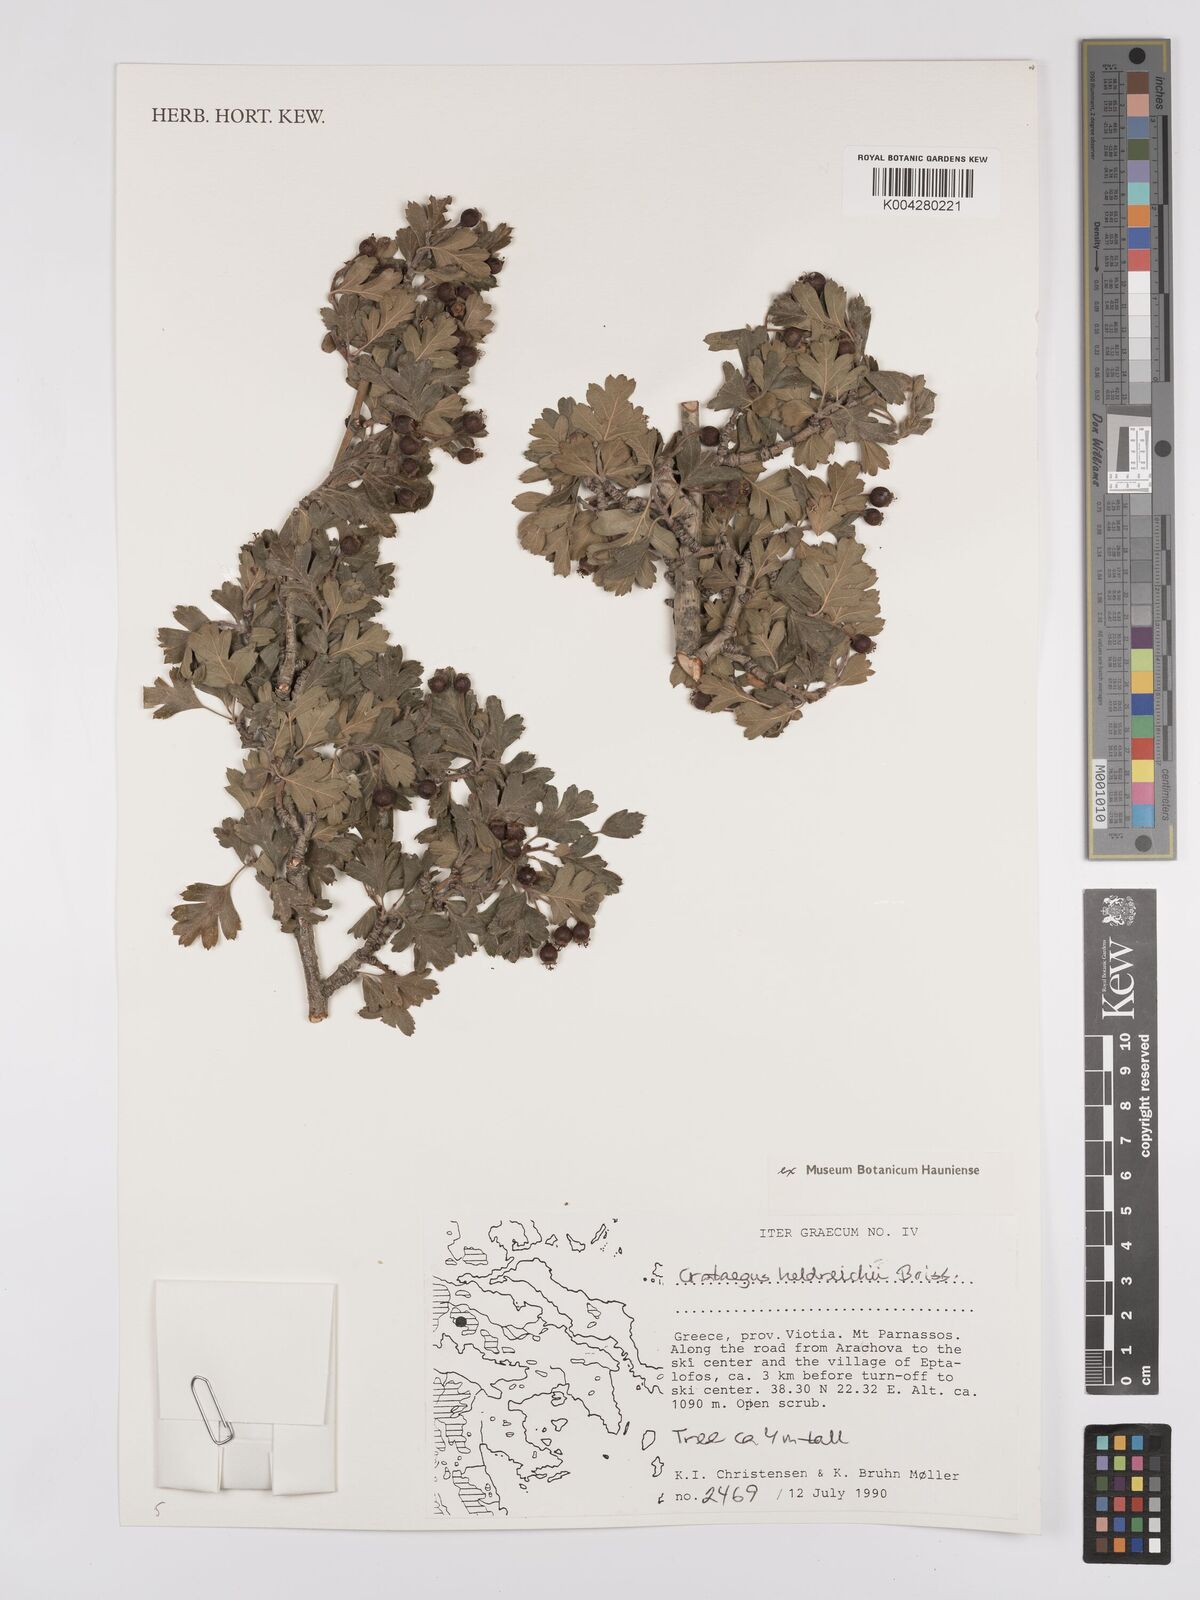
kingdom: Plantae
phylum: Tracheophyta
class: Magnoliopsida
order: Rosales
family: Rosaceae
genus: Crataegus
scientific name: Crataegus heldreichii
